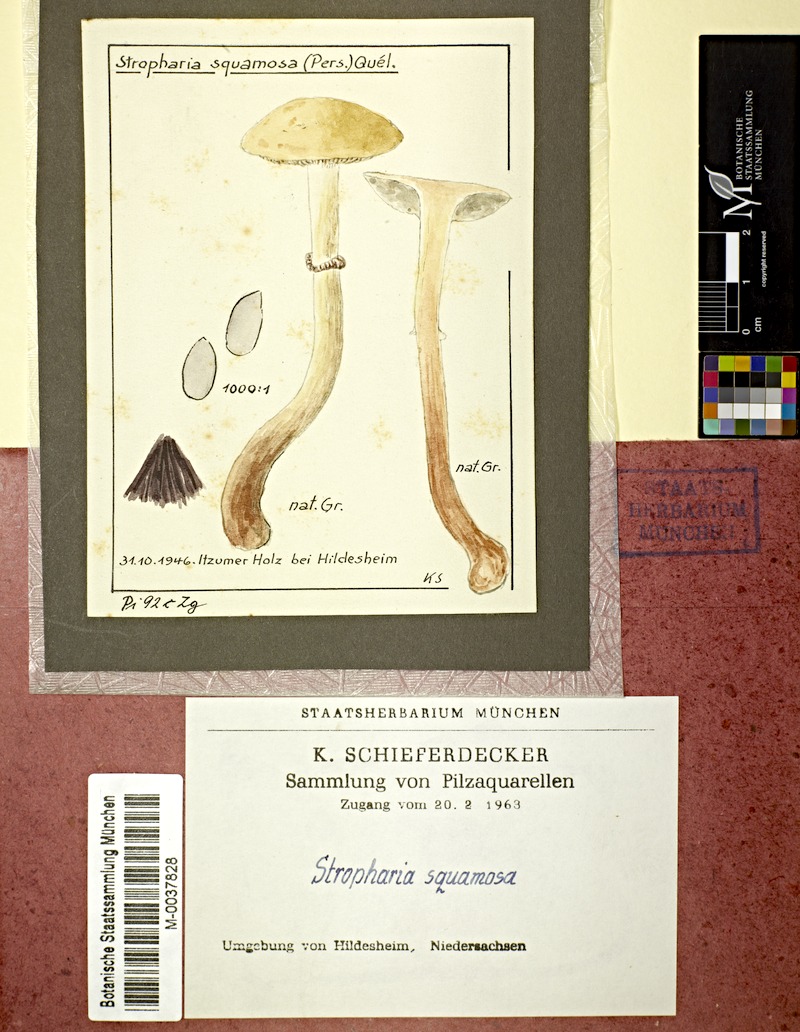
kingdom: Fungi
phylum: Basidiomycota
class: Agaricomycetes
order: Agaricales
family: Strophariaceae
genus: Leratiomyces
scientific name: Leratiomyces squamosus
